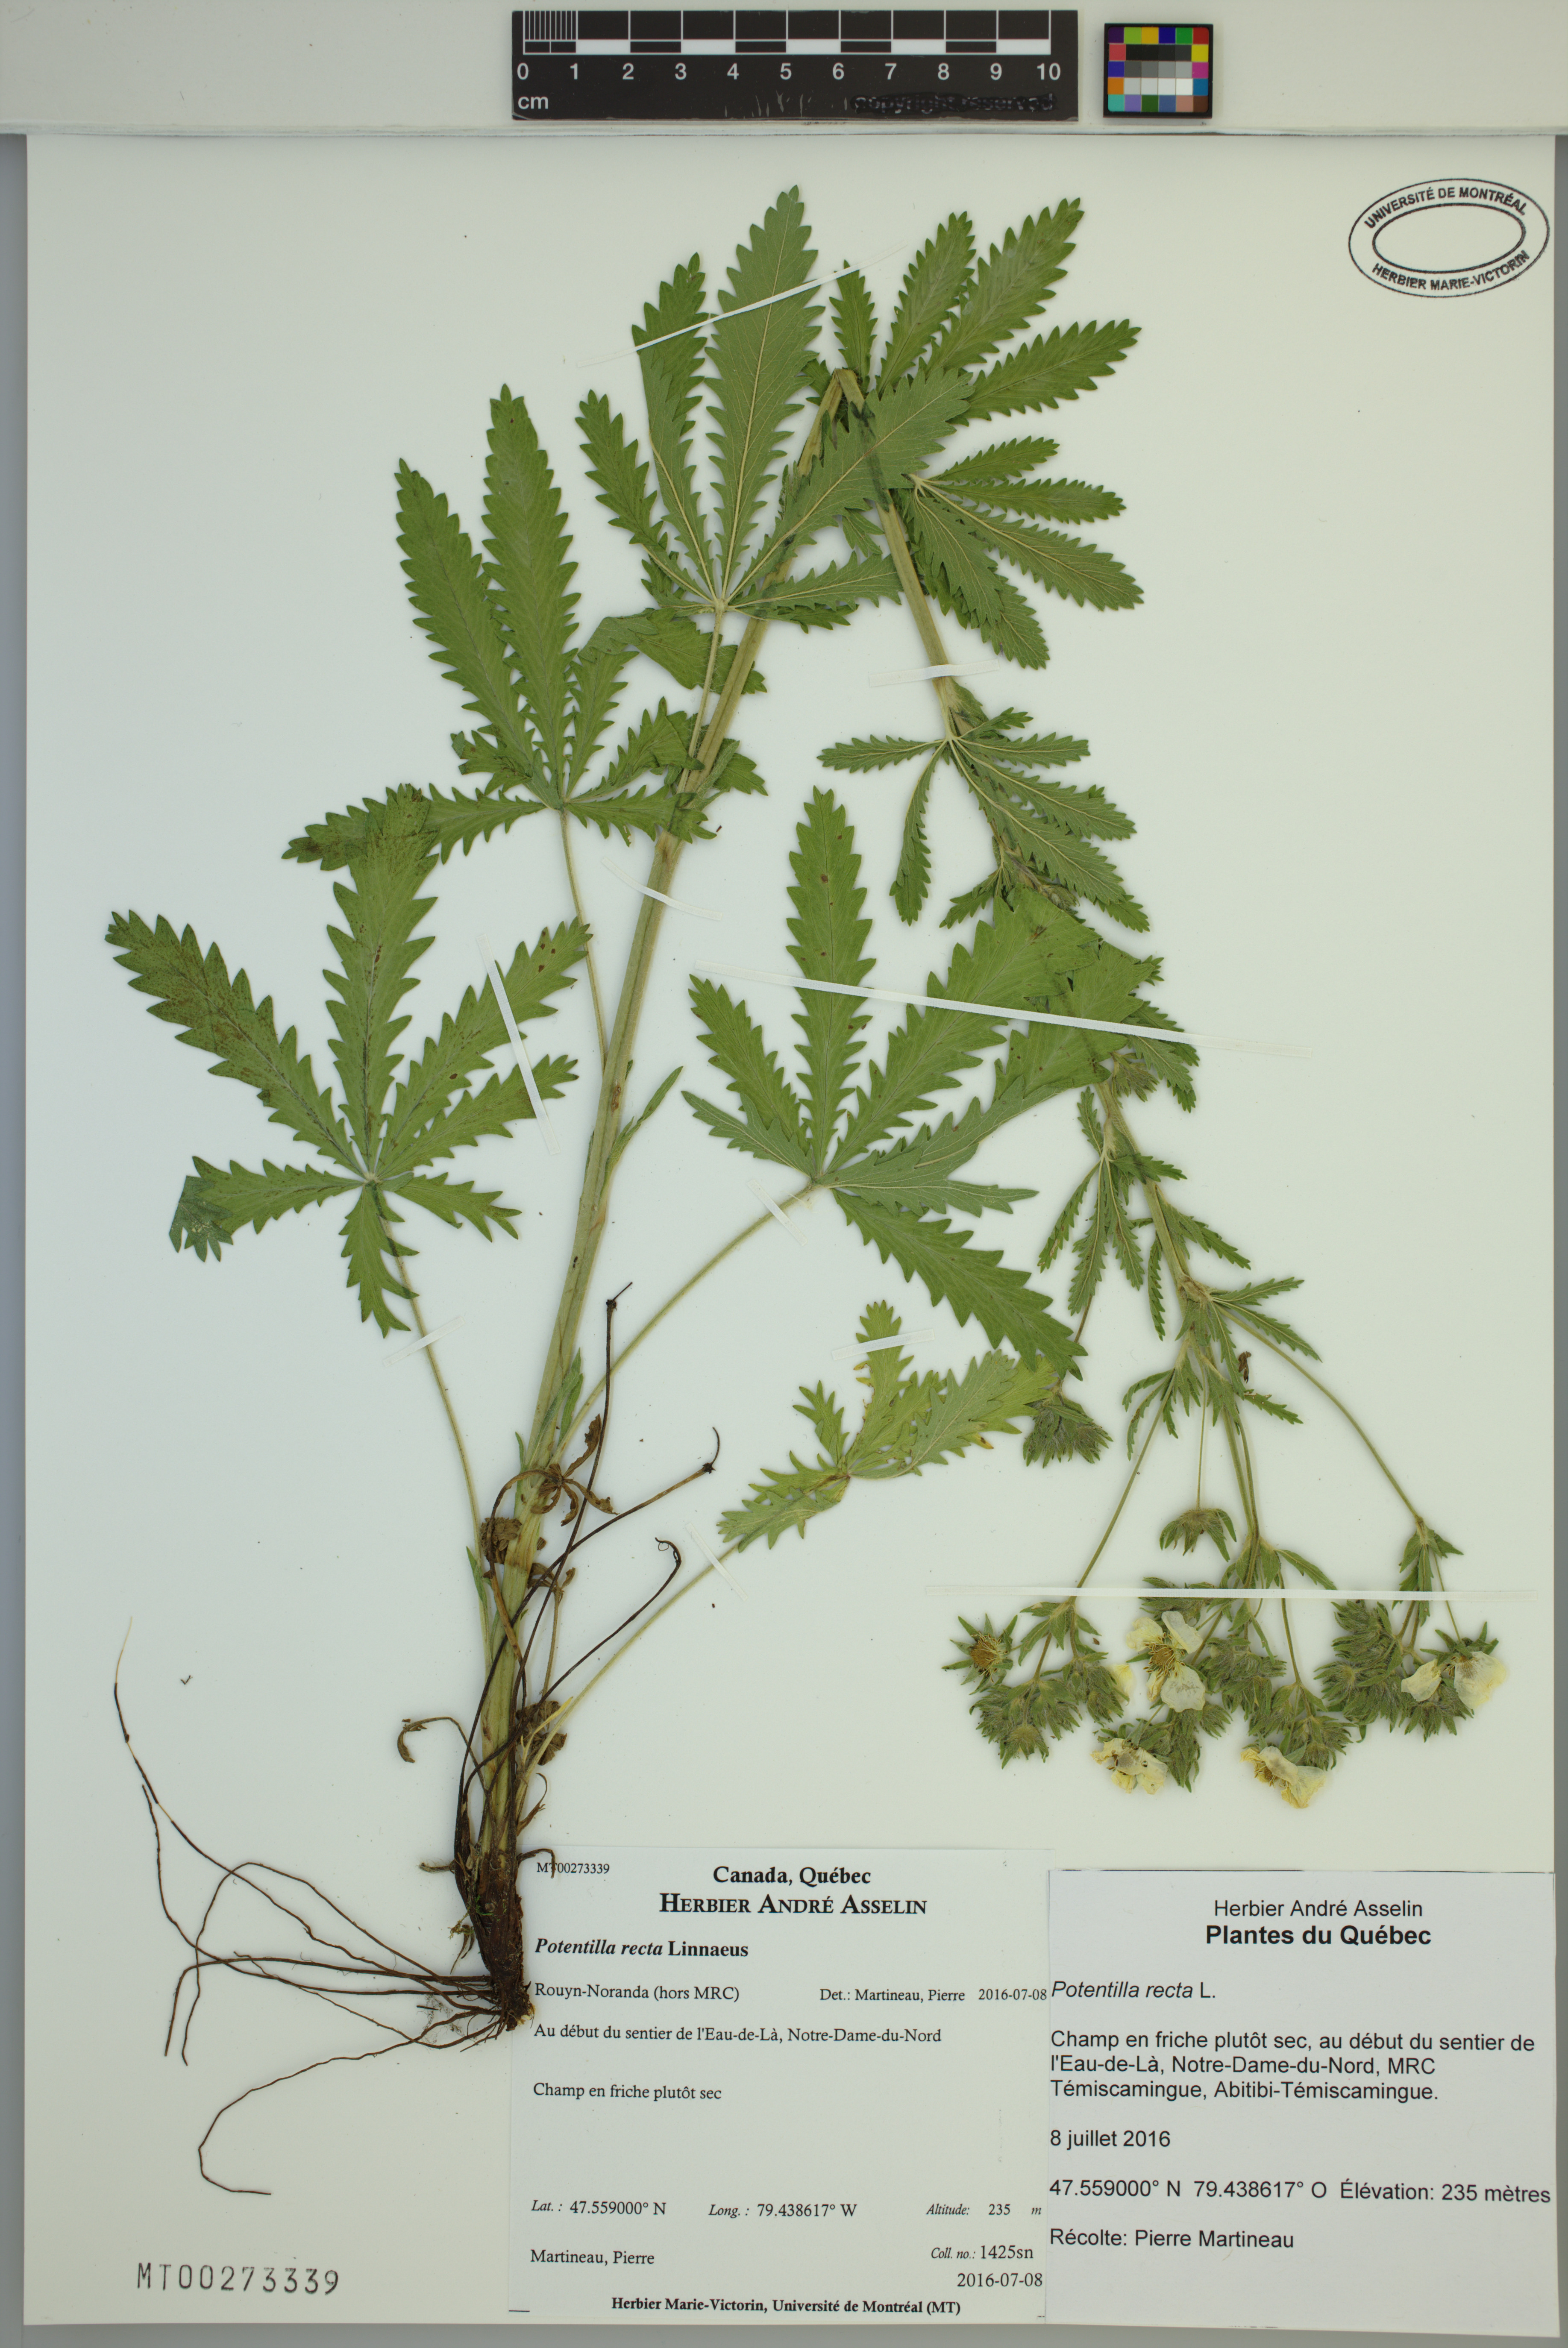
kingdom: Plantae
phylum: Tracheophyta
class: Magnoliopsida
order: Rosales
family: Rosaceae
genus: Potentilla
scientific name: Potentilla recta
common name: Sulphur cinquefoil
